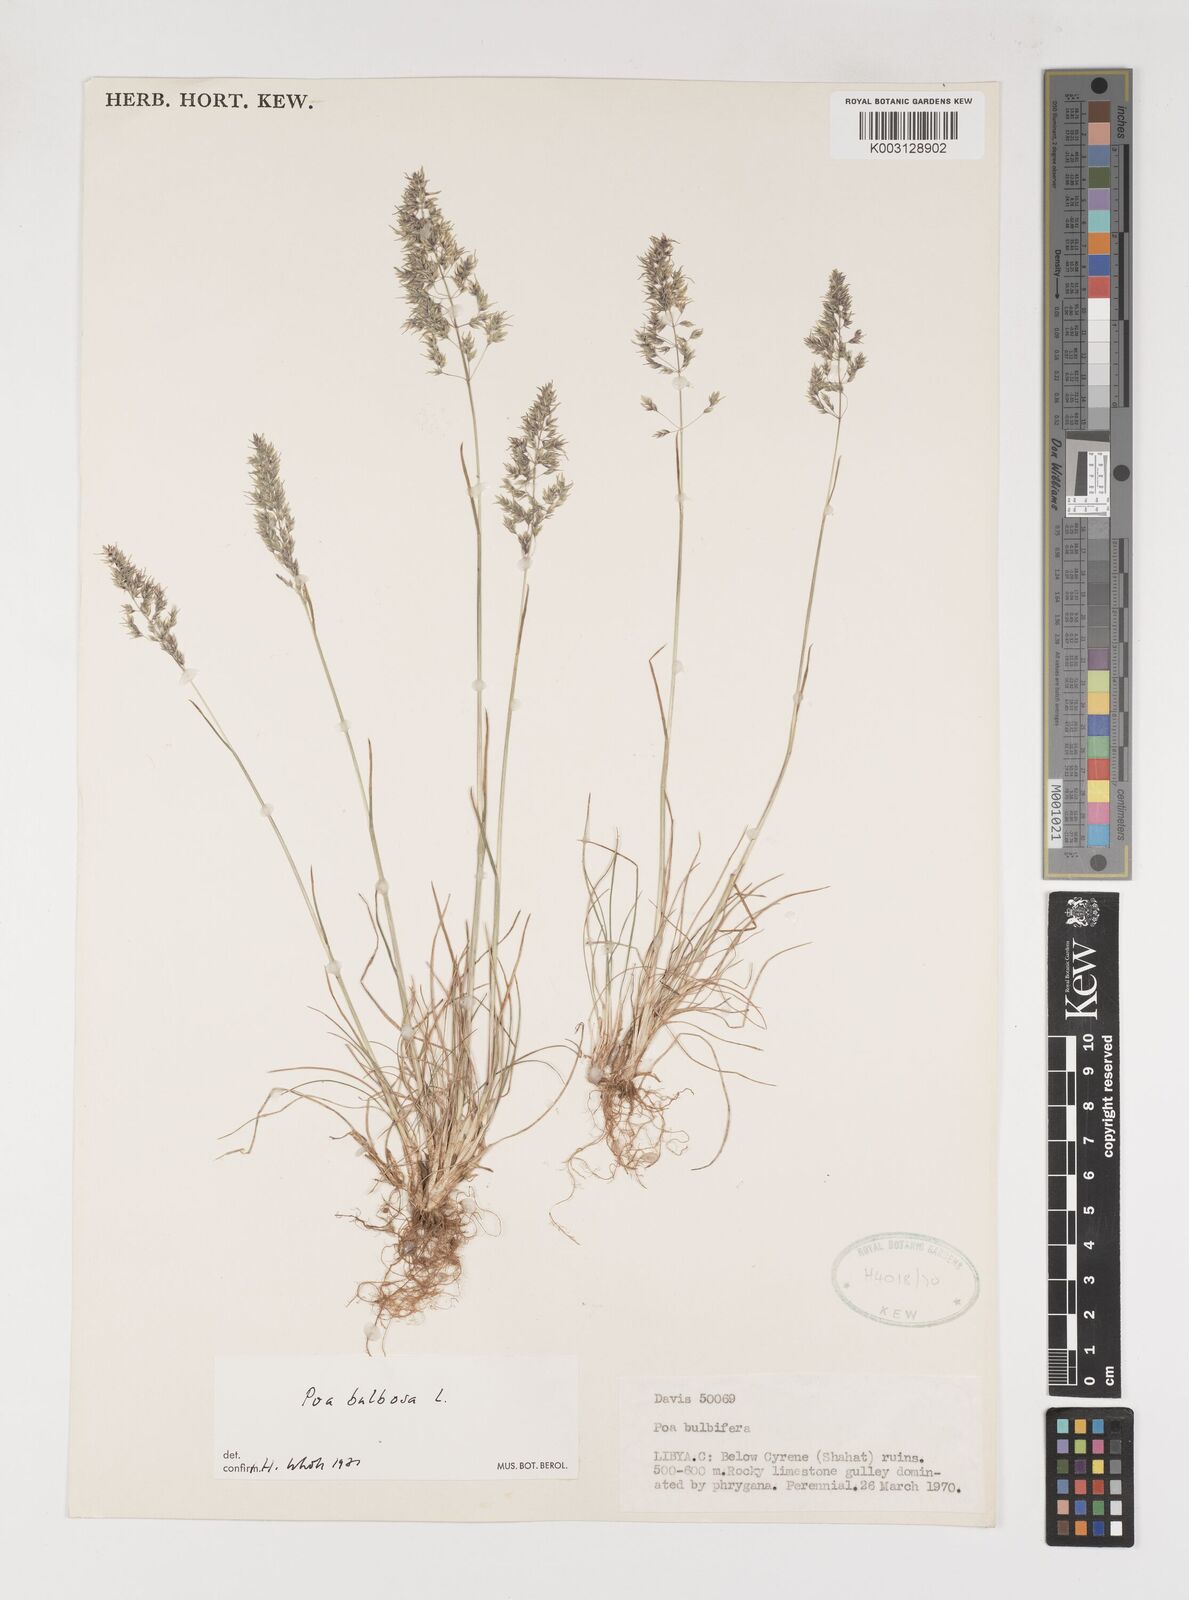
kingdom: Plantae
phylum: Tracheophyta
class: Liliopsida
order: Poales
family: Poaceae
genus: Poa
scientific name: Poa bulbosa
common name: Bulbous bluegrass
